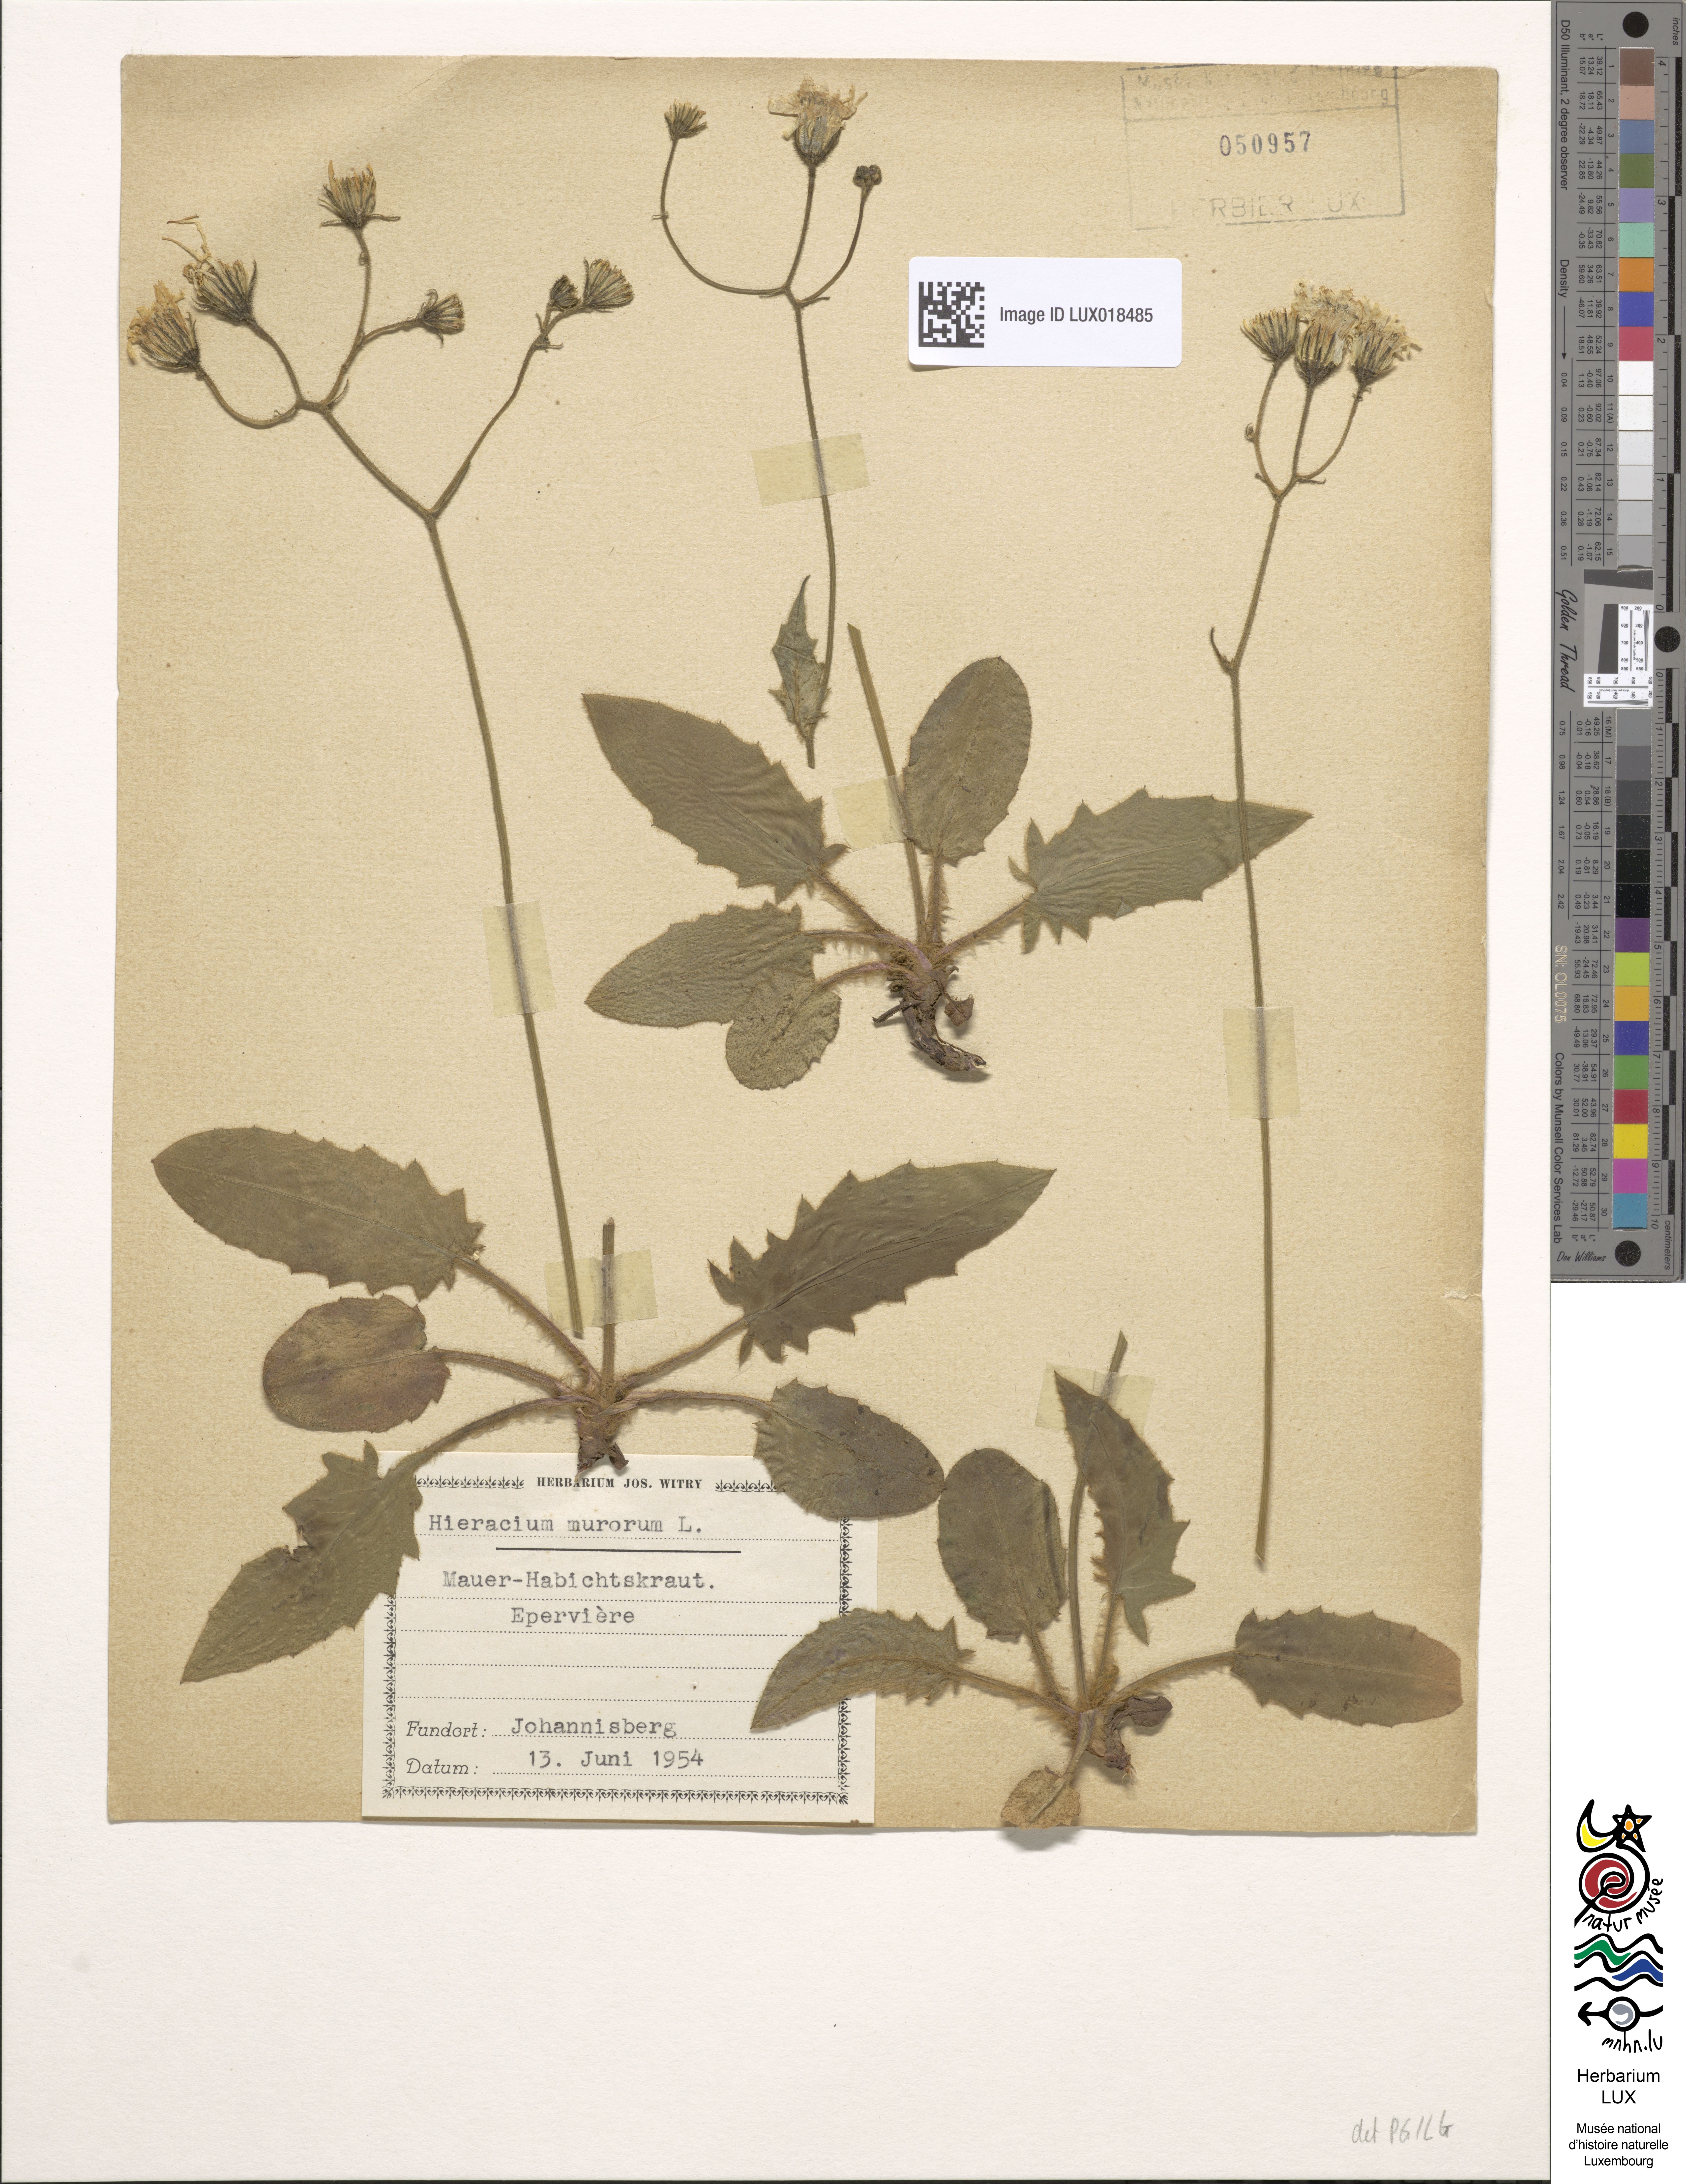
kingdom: Plantae
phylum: Tracheophyta
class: Magnoliopsida
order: Asterales
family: Asteraceae
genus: Hieracium
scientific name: Hieracium murorum
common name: Wall hawkweed
